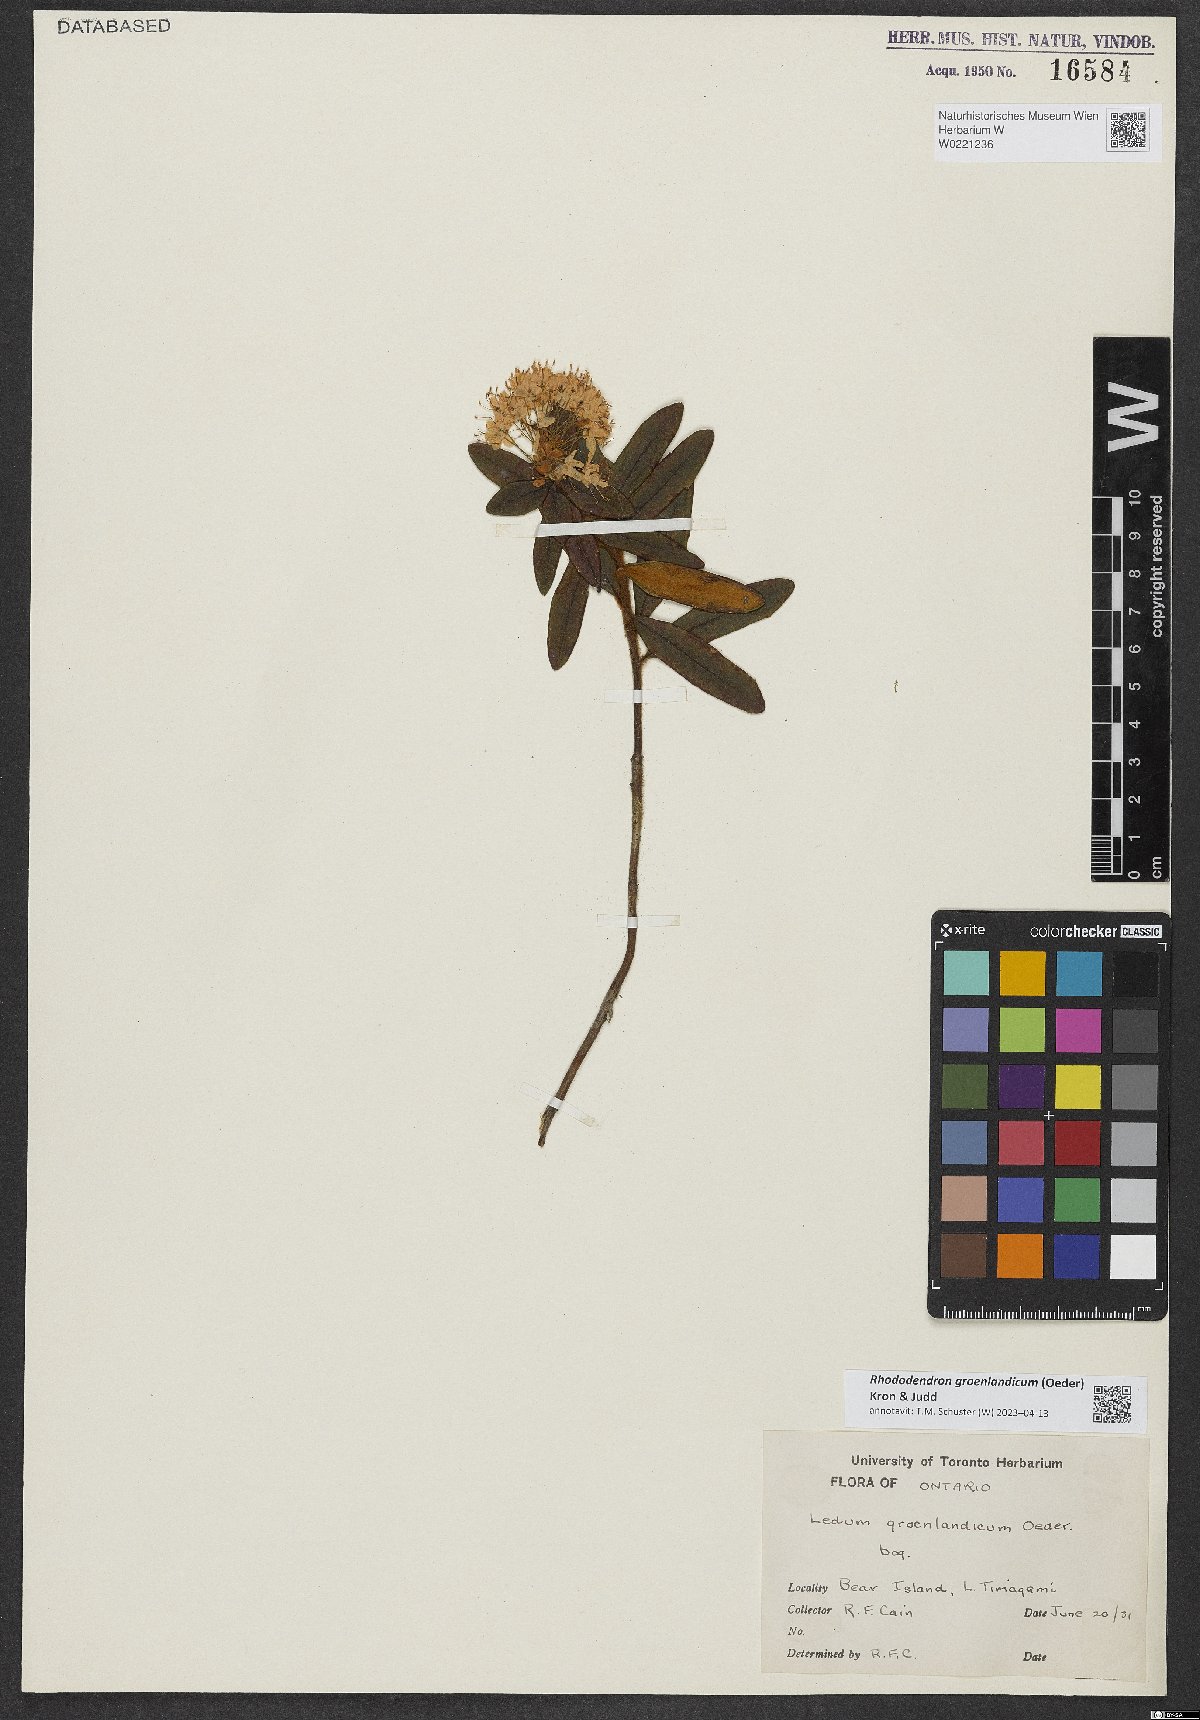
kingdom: Plantae
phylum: Tracheophyta
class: Magnoliopsida
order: Ericales
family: Ericaceae
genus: Rhododendron
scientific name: Rhododendron groenlandicum
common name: Bog labrador tea
